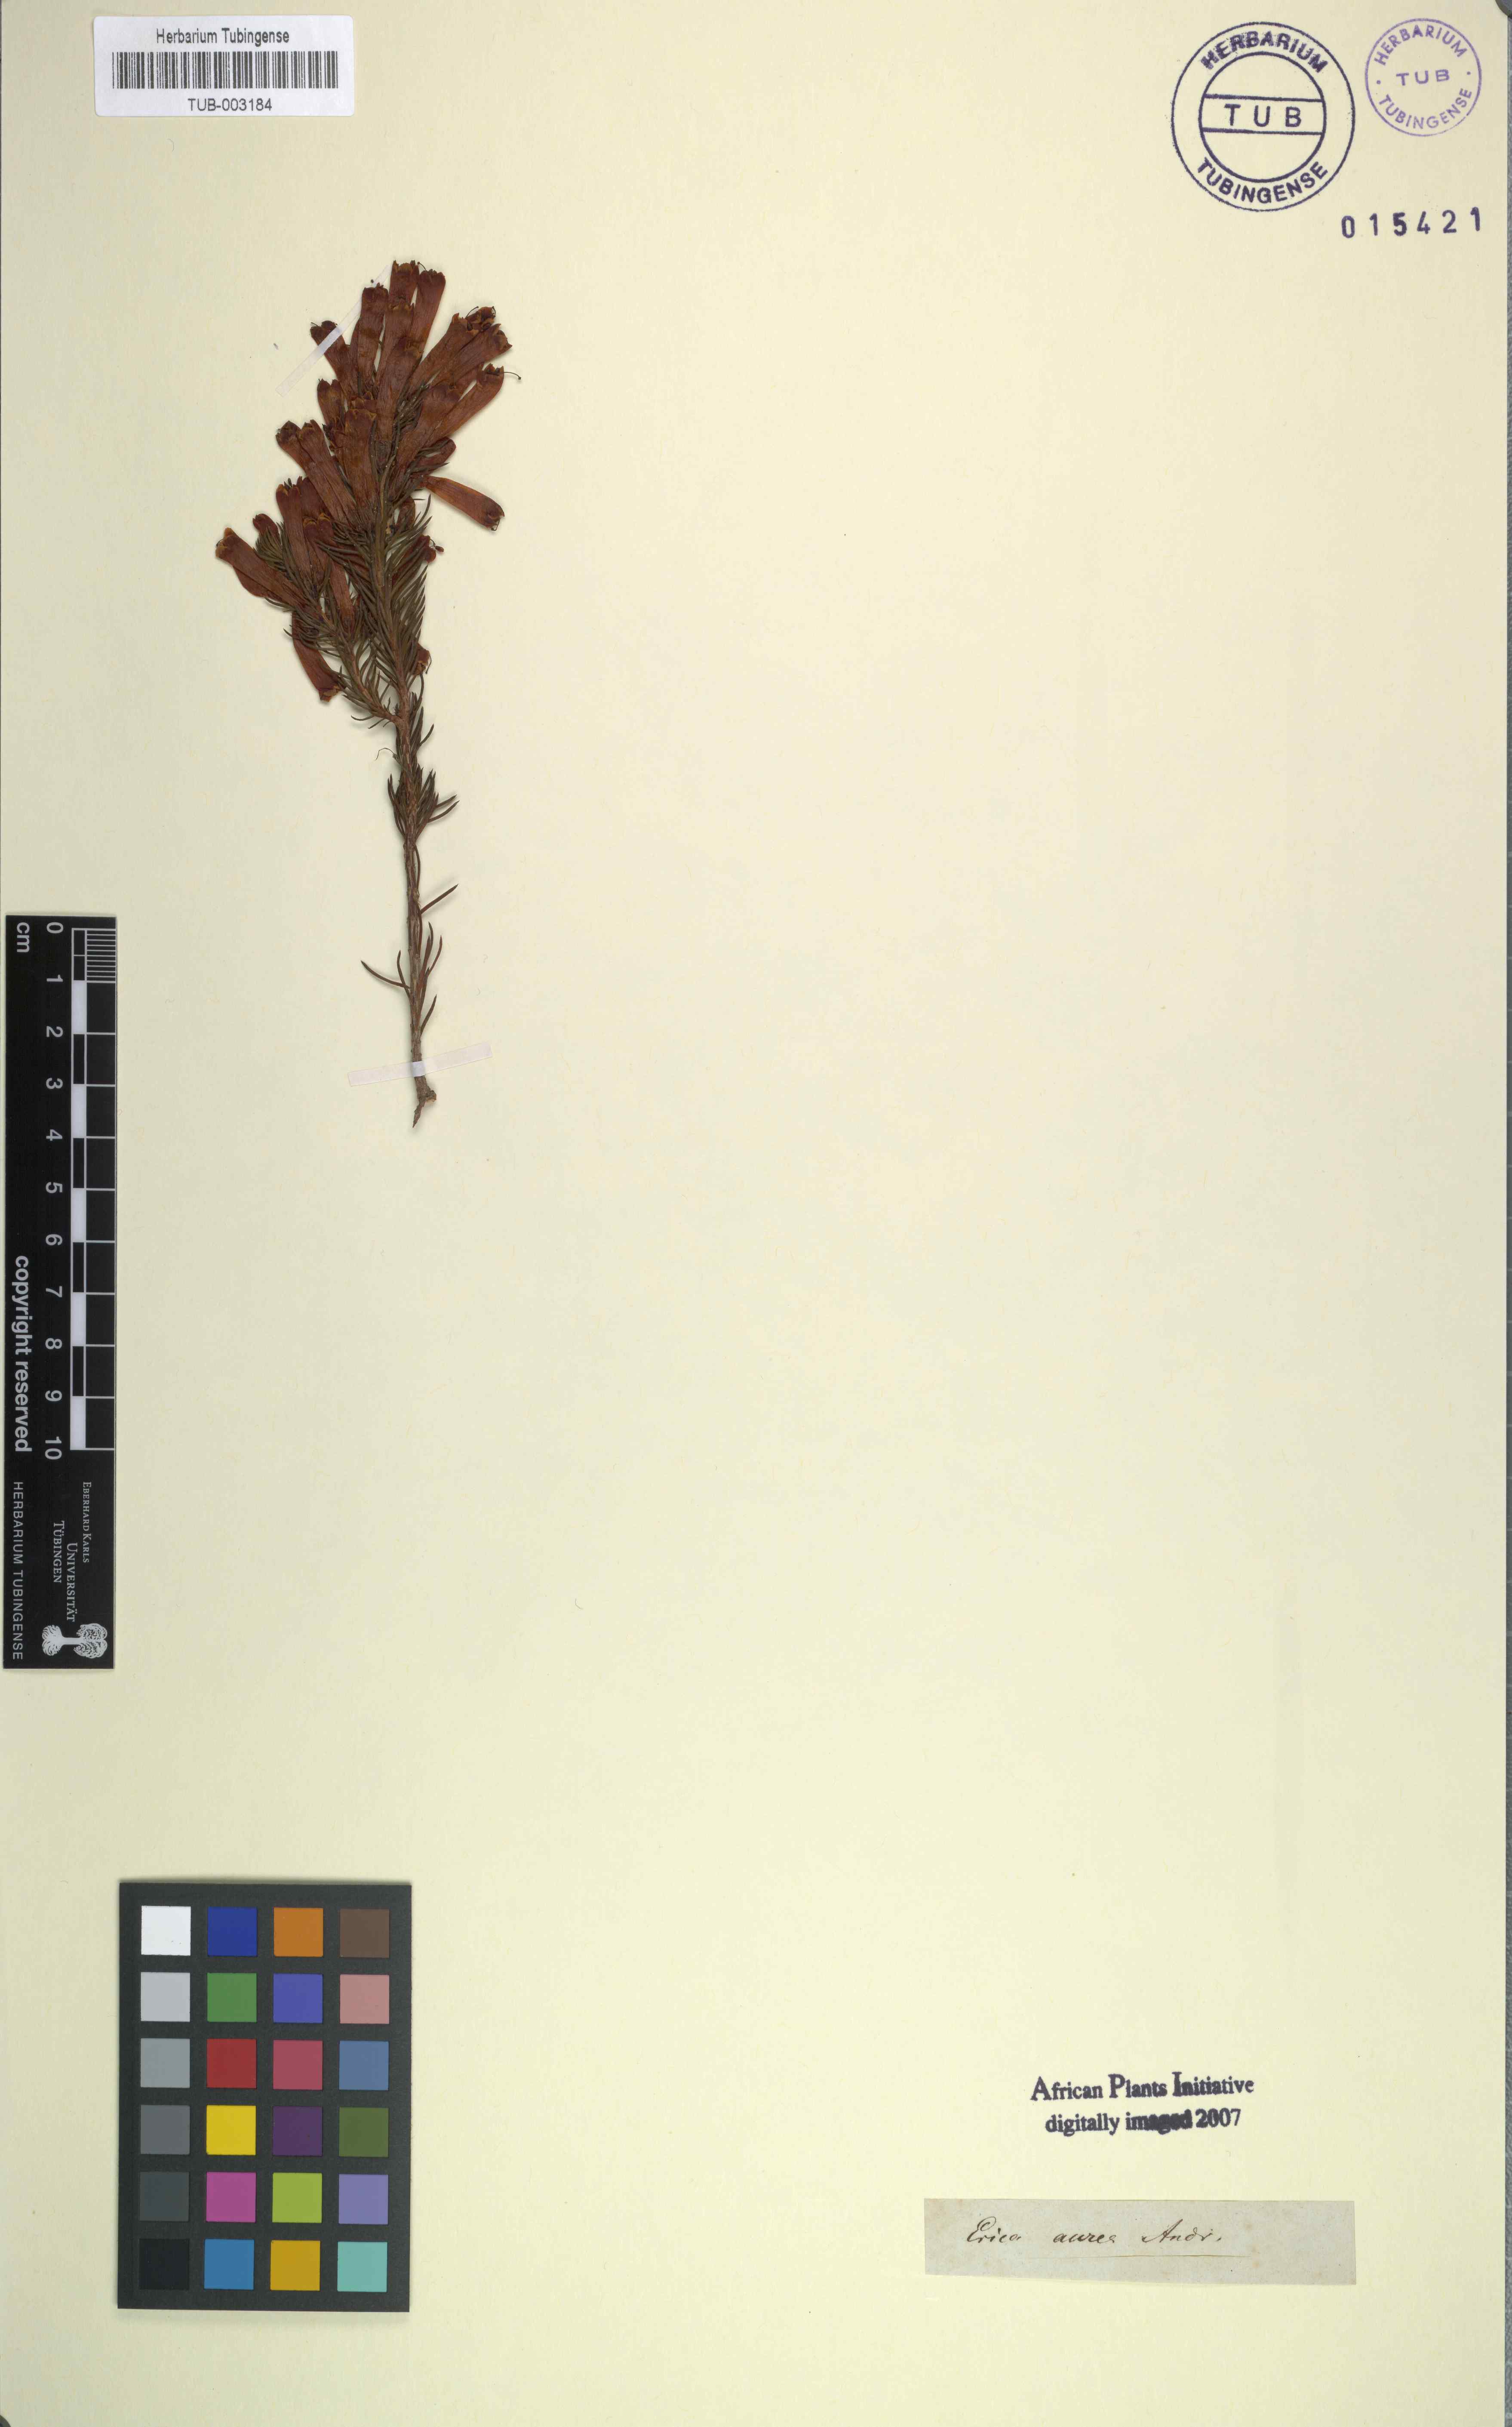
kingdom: Plantae
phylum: Tracheophyta
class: Magnoliopsida
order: Ericales
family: Ericaceae
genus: Erica
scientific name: Erica pinea
